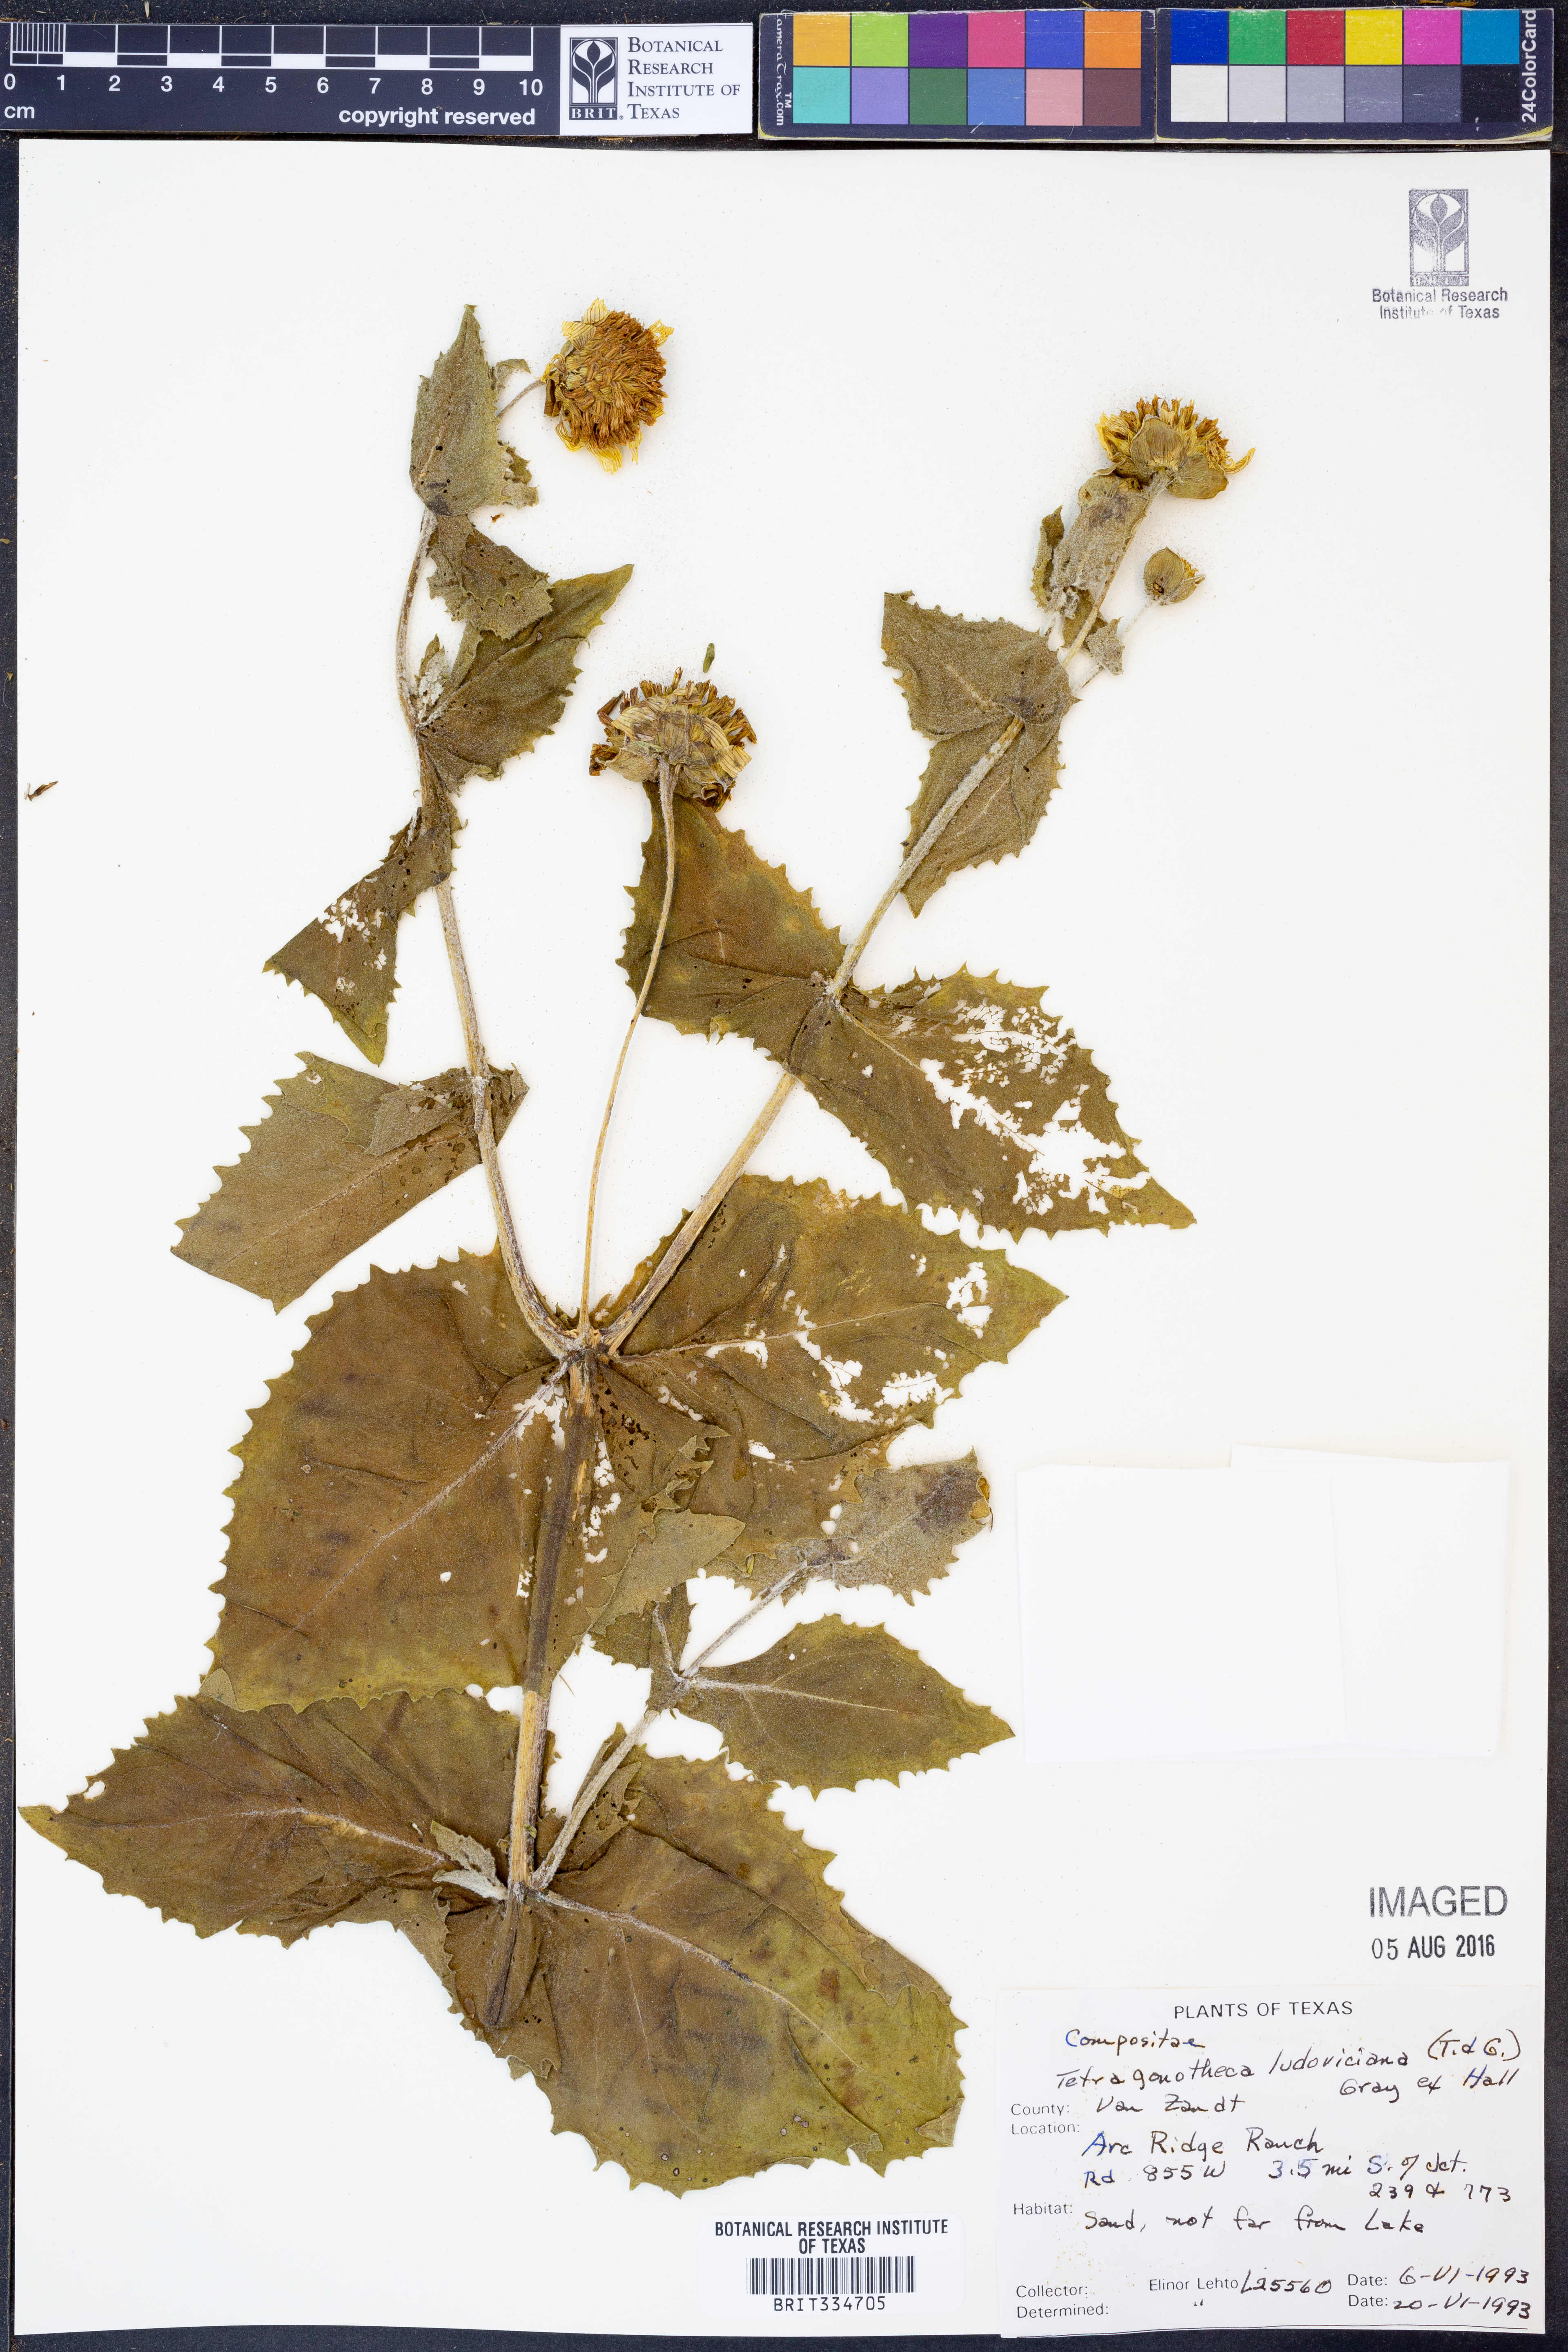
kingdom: Plantae
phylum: Tracheophyta
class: Magnoliopsida
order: Asterales
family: Asteraceae
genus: Tetragonotheca
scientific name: Tetragonotheca ludoviciana
